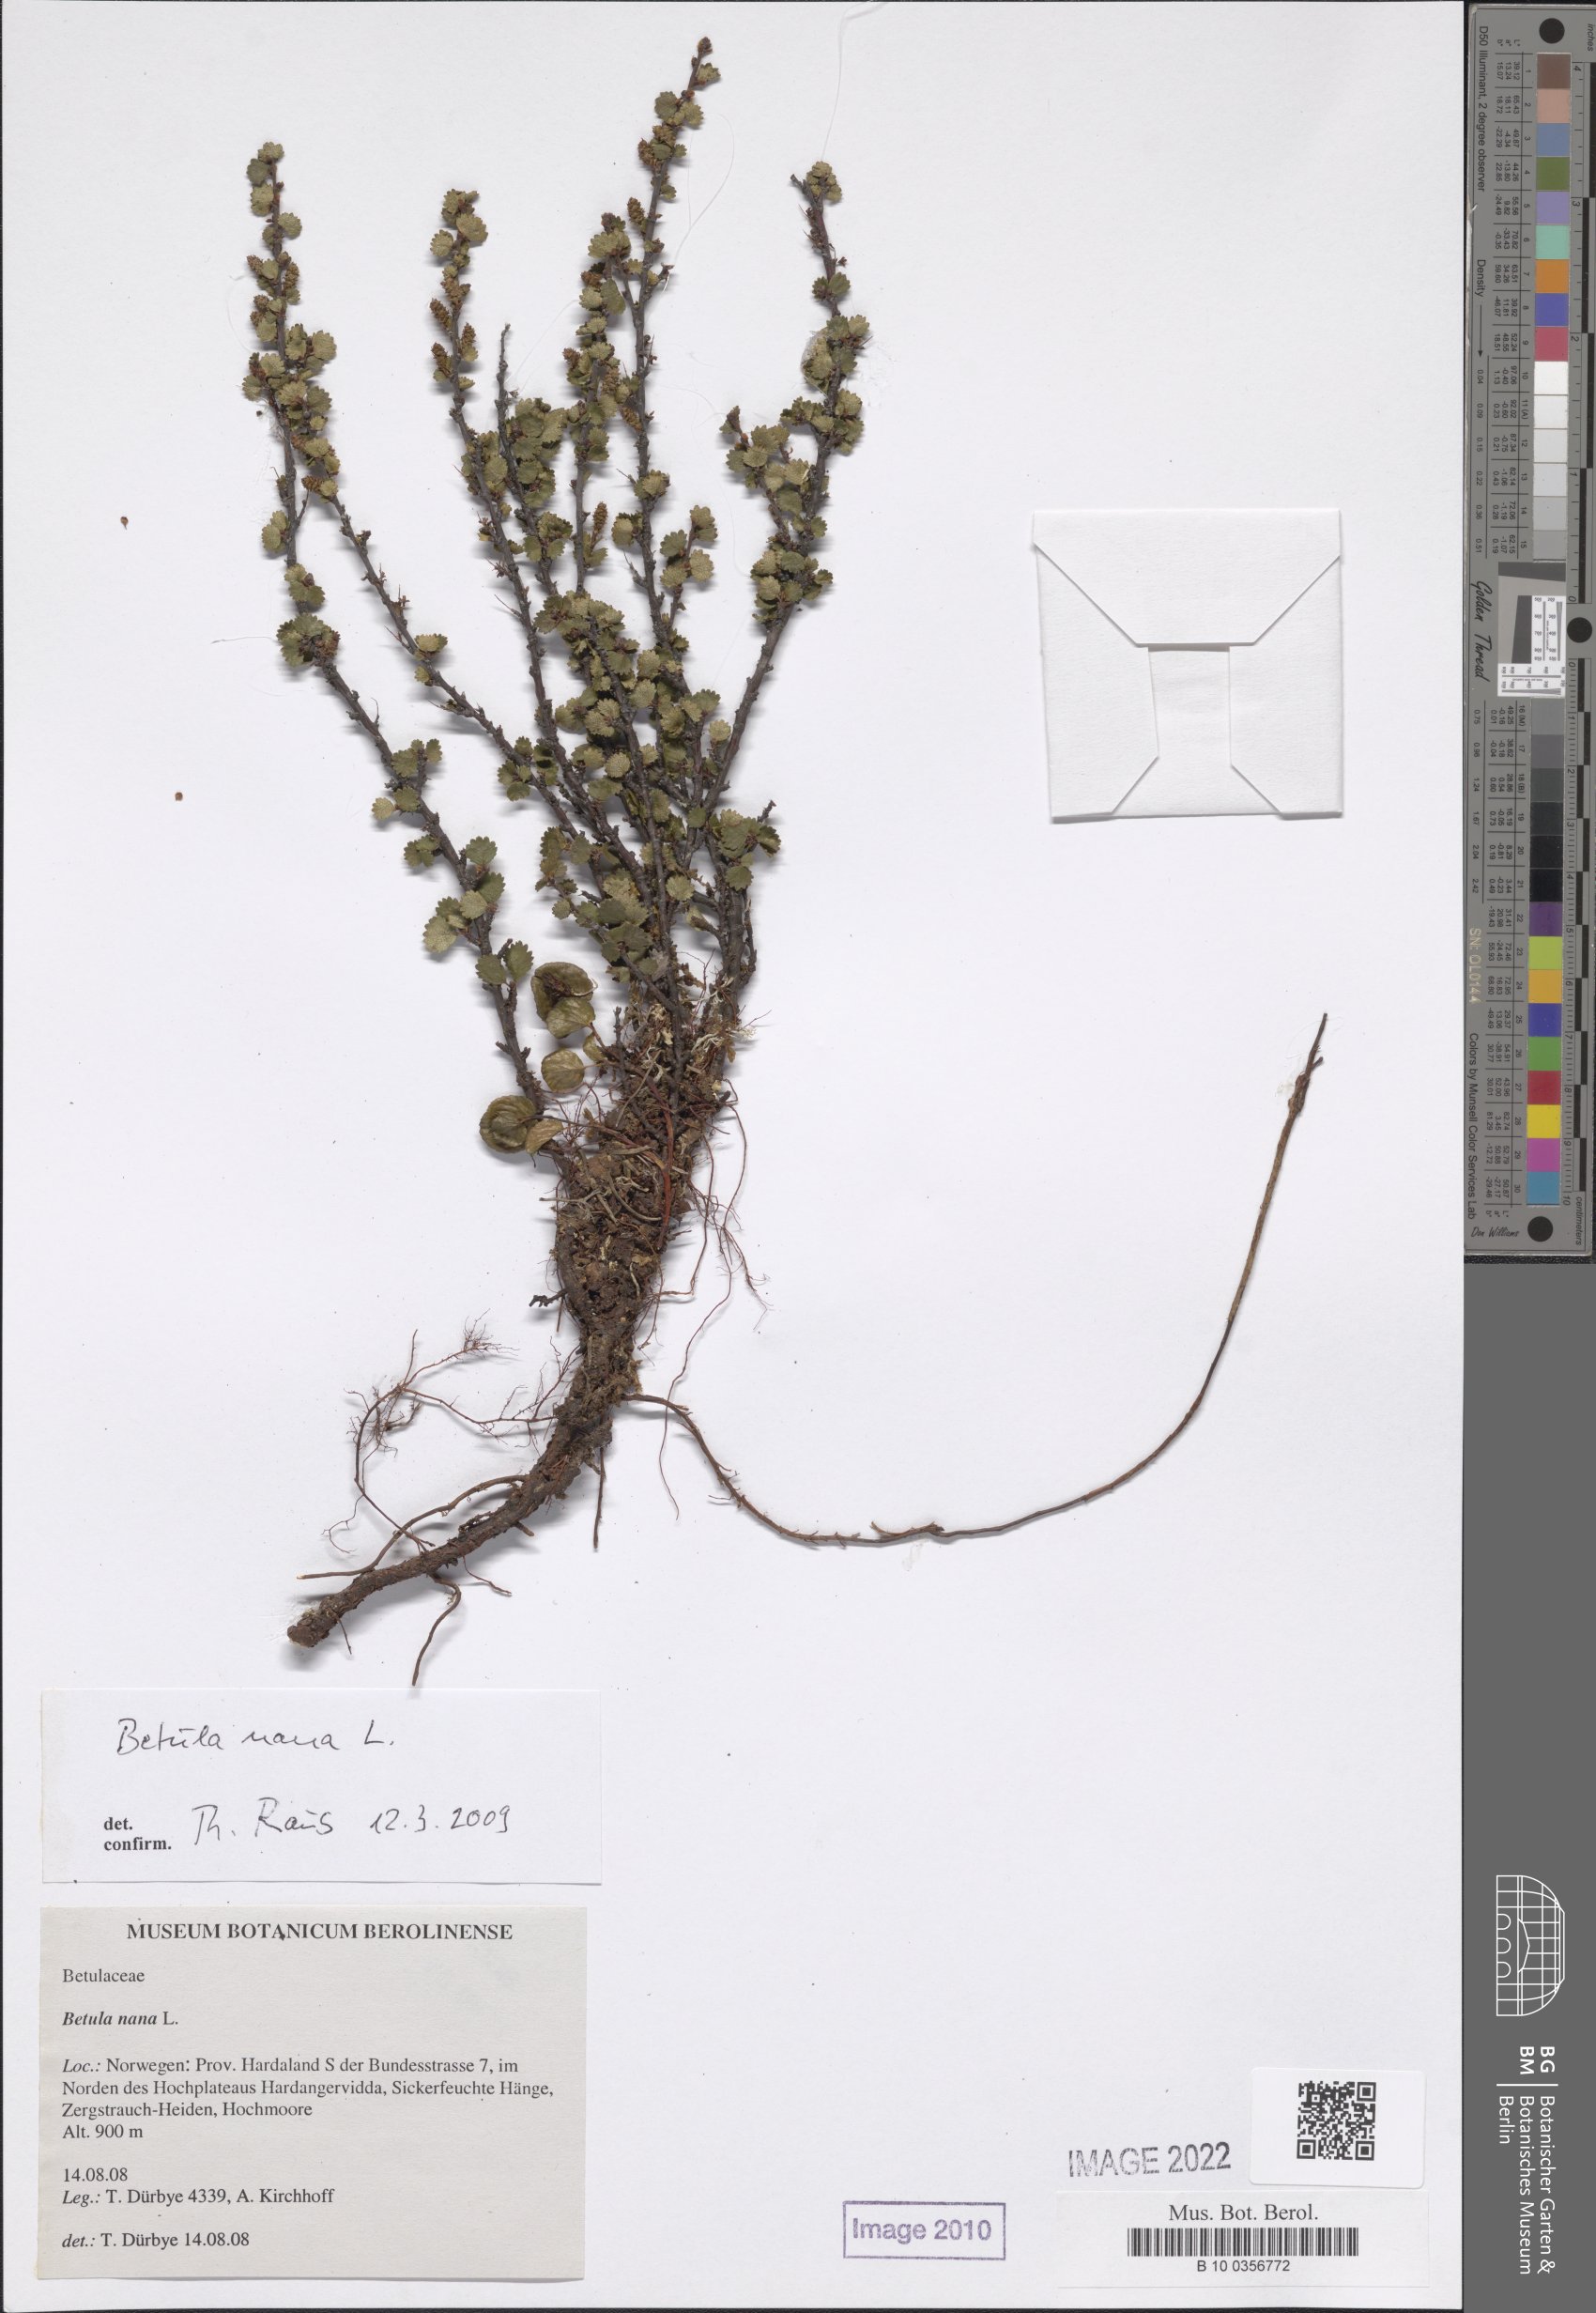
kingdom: Plantae
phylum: Tracheophyta
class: Magnoliopsida
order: Fagales
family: Betulaceae
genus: Betula
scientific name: Betula nana
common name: Arctic dwarf birch
